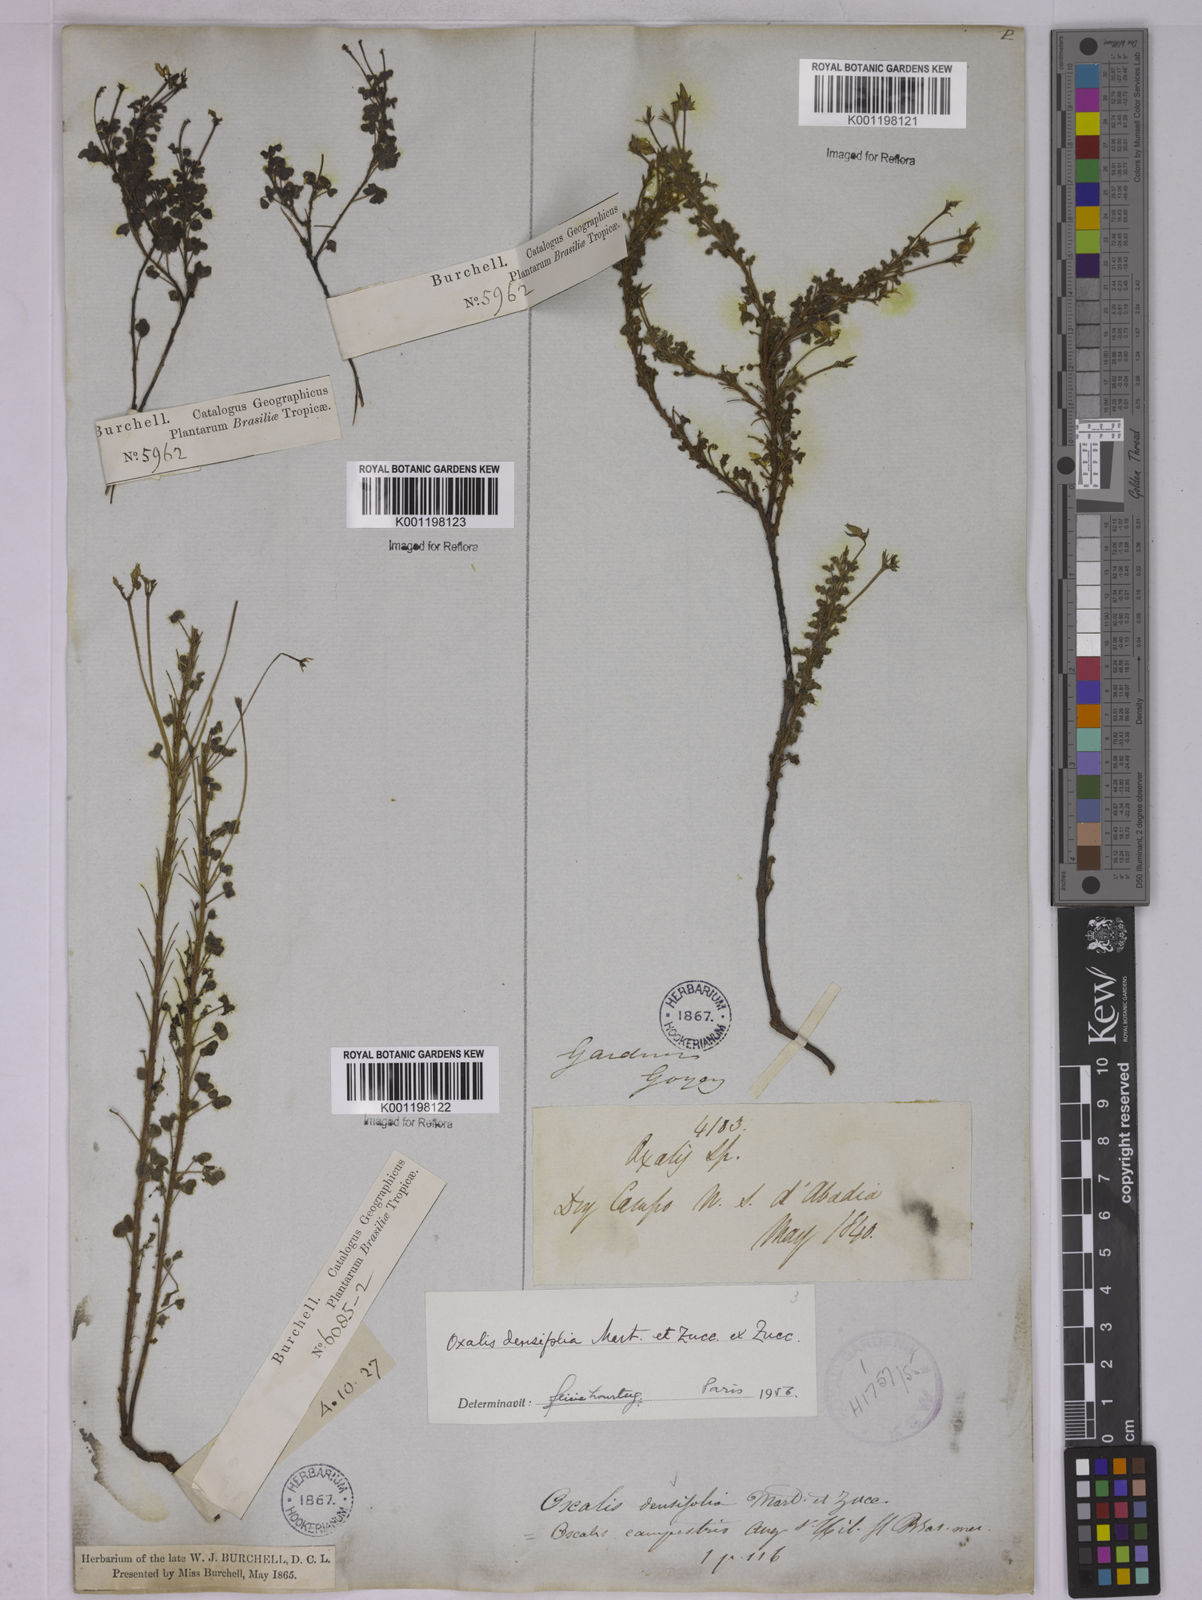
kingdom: Plantae
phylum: Tracheophyta
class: Magnoliopsida
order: Oxalidales
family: Oxalidaceae
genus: Oxalis
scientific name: Oxalis densifolia
